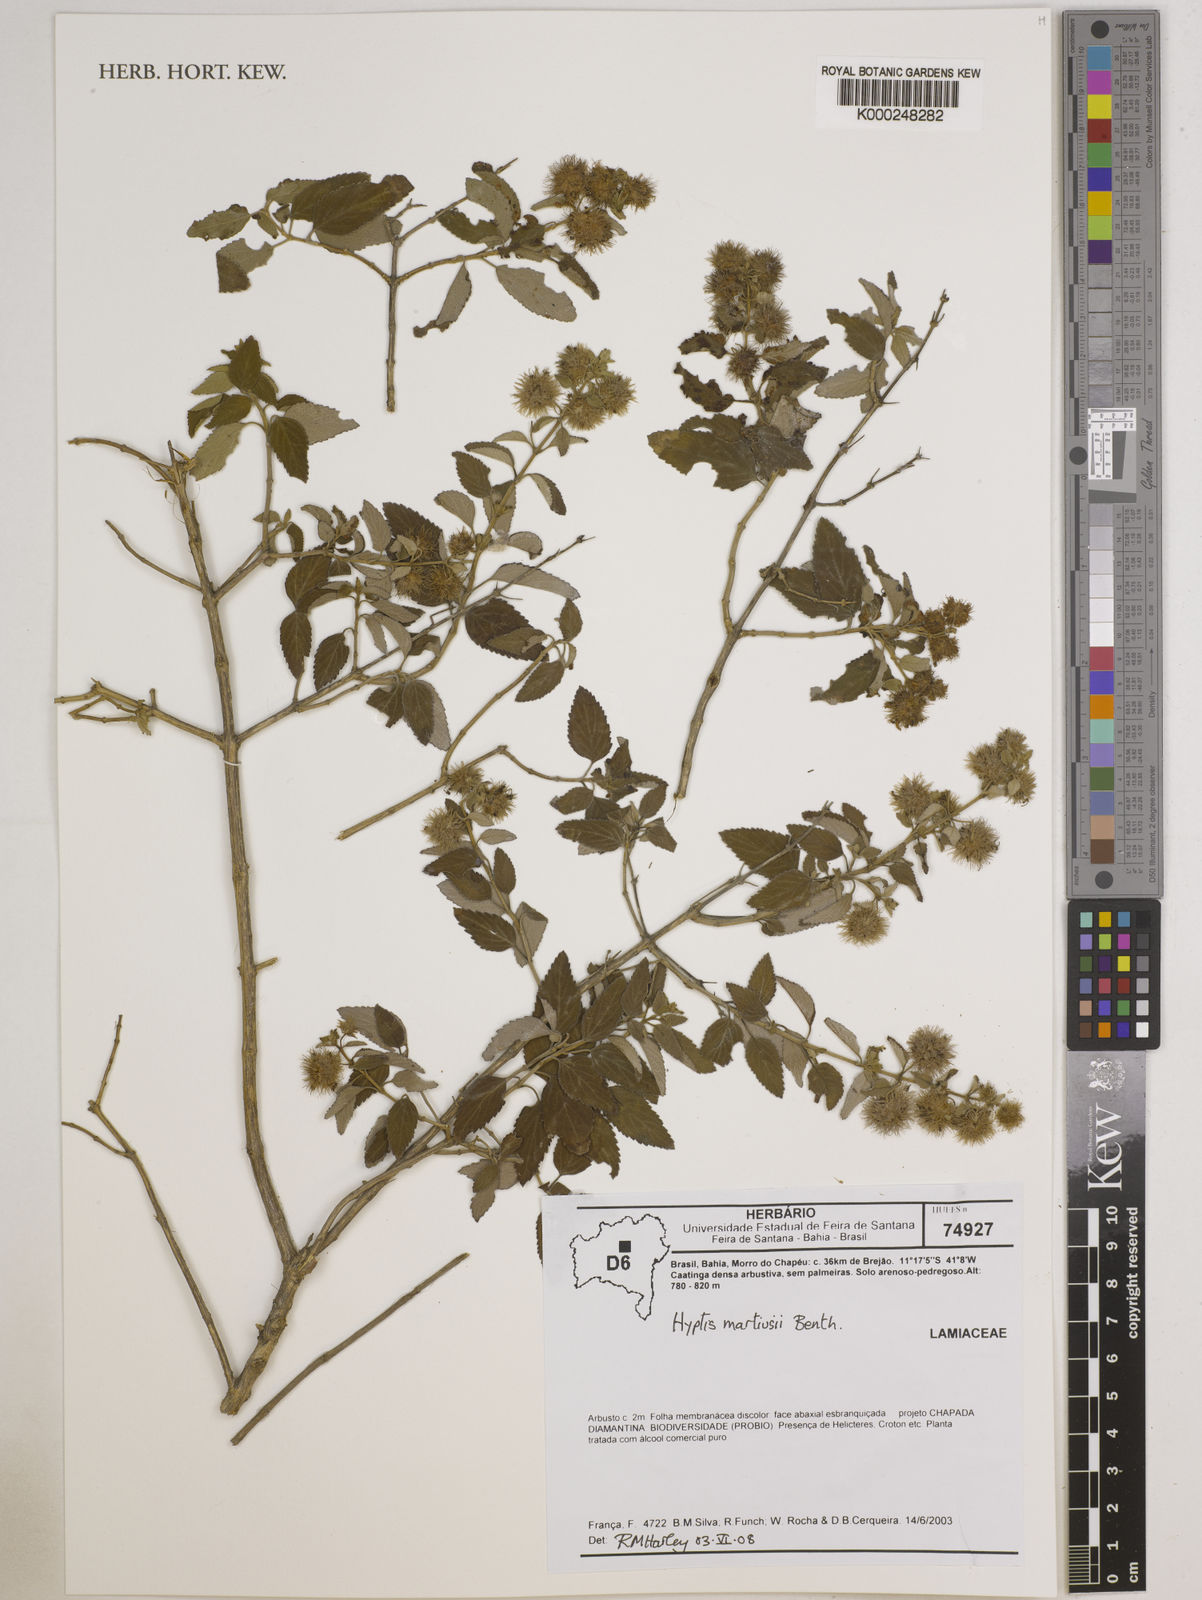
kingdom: Plantae
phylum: Tracheophyta
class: Magnoliopsida
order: Lamiales
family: Lamiaceae
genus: Medusantha
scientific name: Medusantha martiusii
